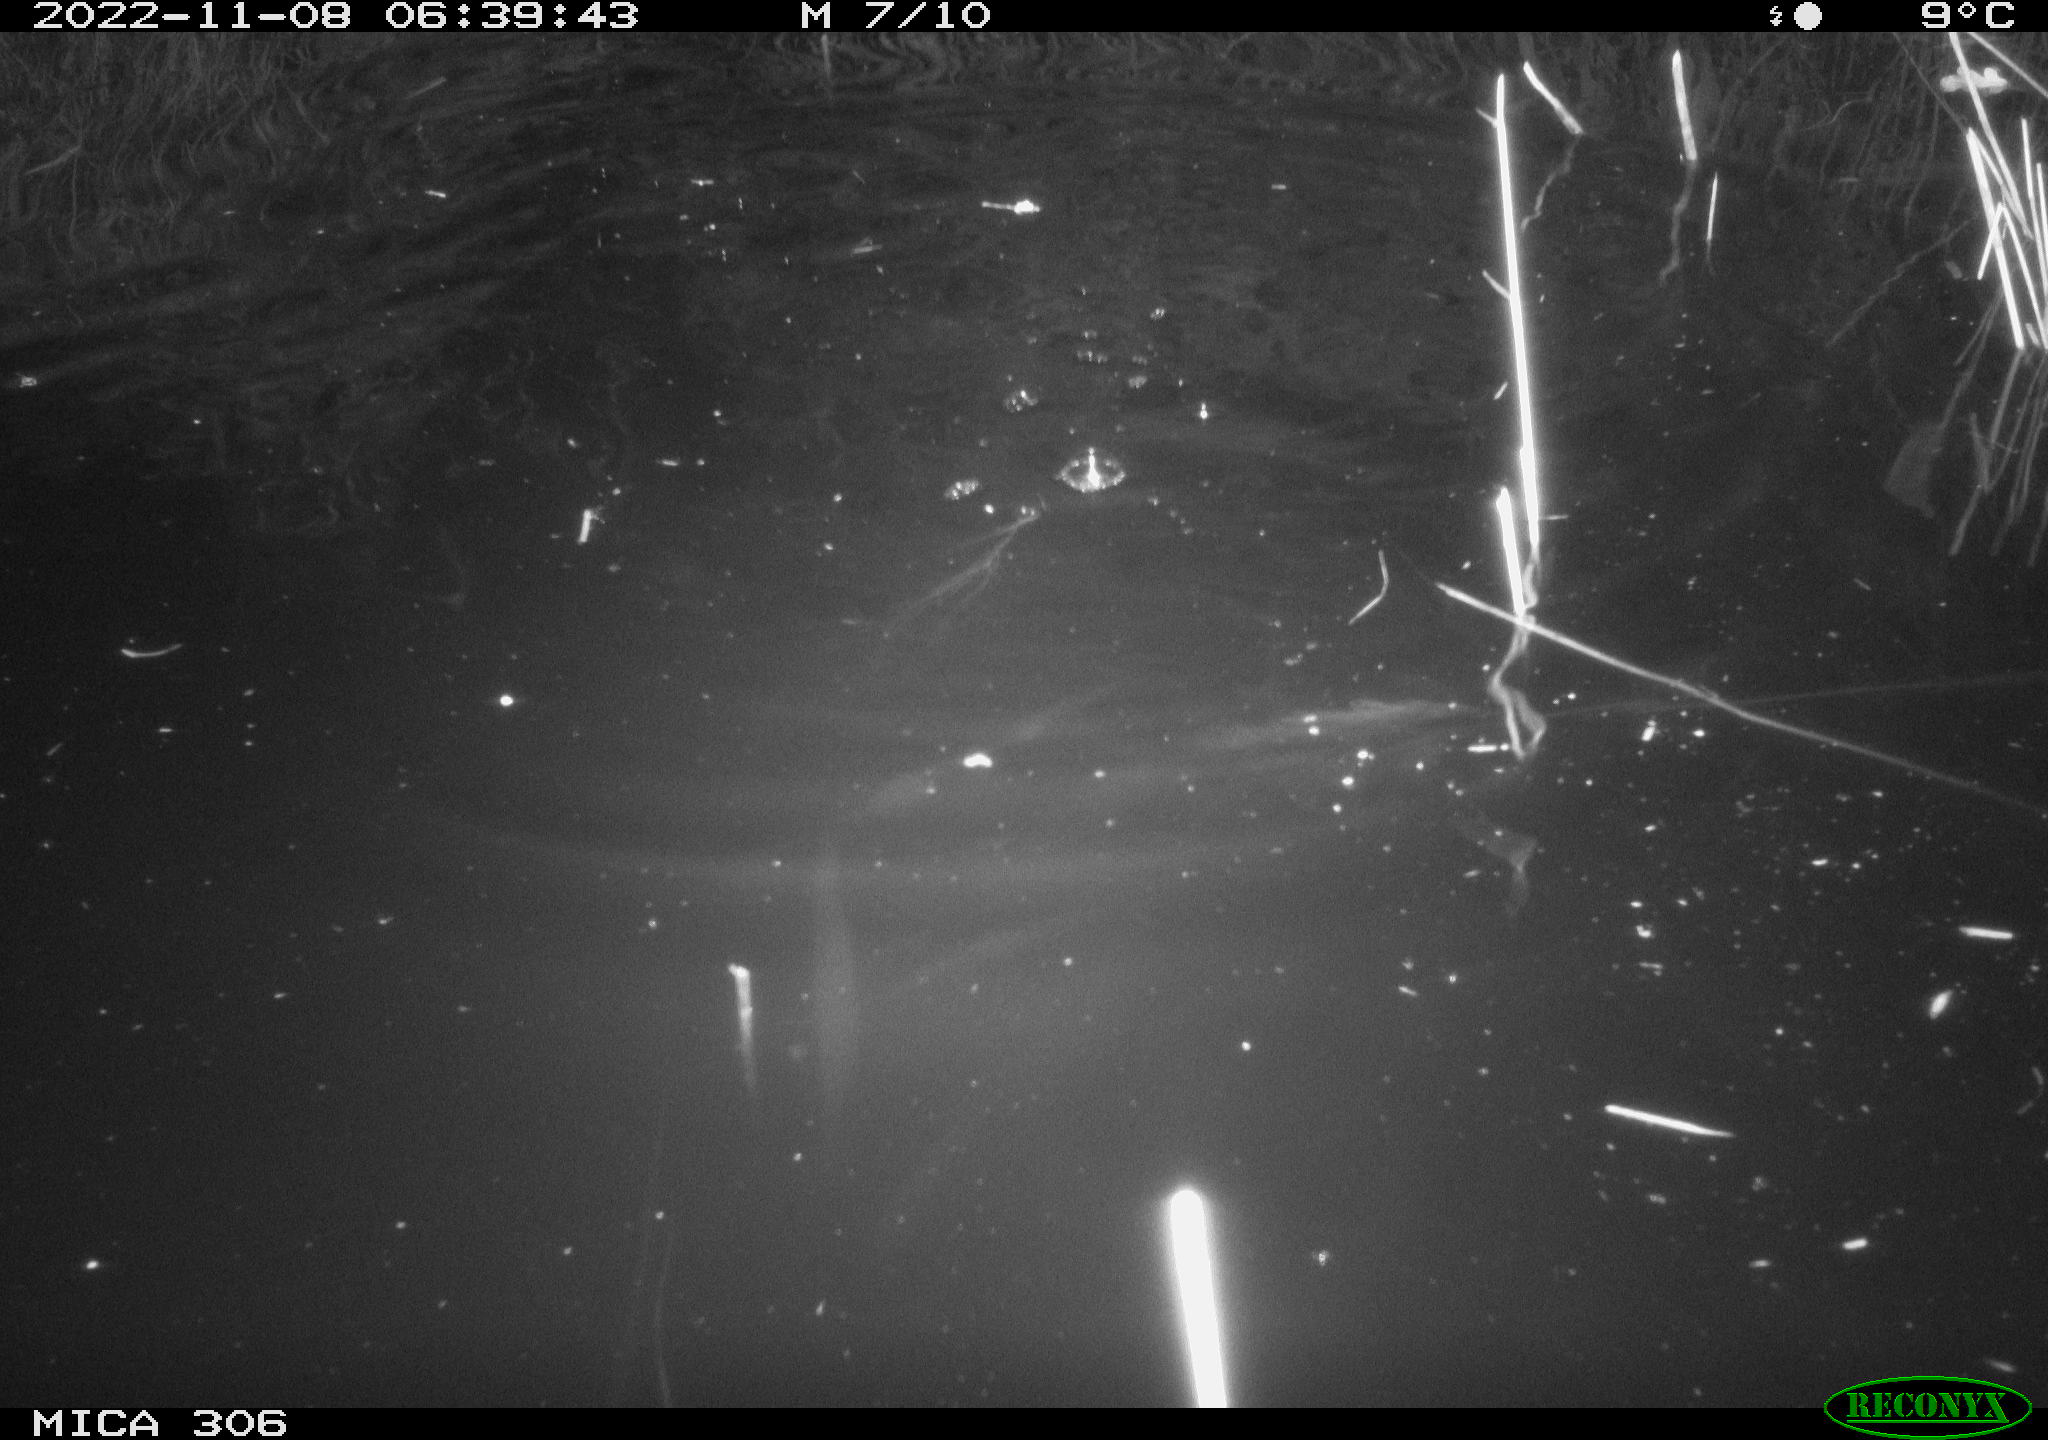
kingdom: Animalia
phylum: Chordata
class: Mammalia
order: Rodentia
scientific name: Rodentia
